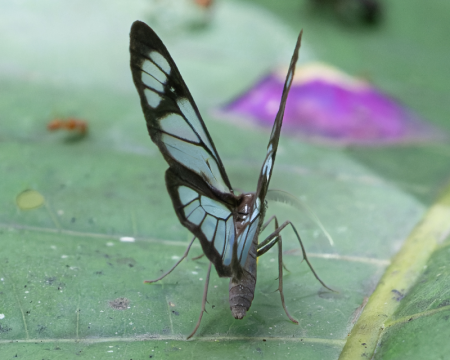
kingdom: Animalia
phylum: Arthropoda
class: Insecta
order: Lepidoptera
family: Nymphalidae
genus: Ithomia
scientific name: Ithomia agnosia
